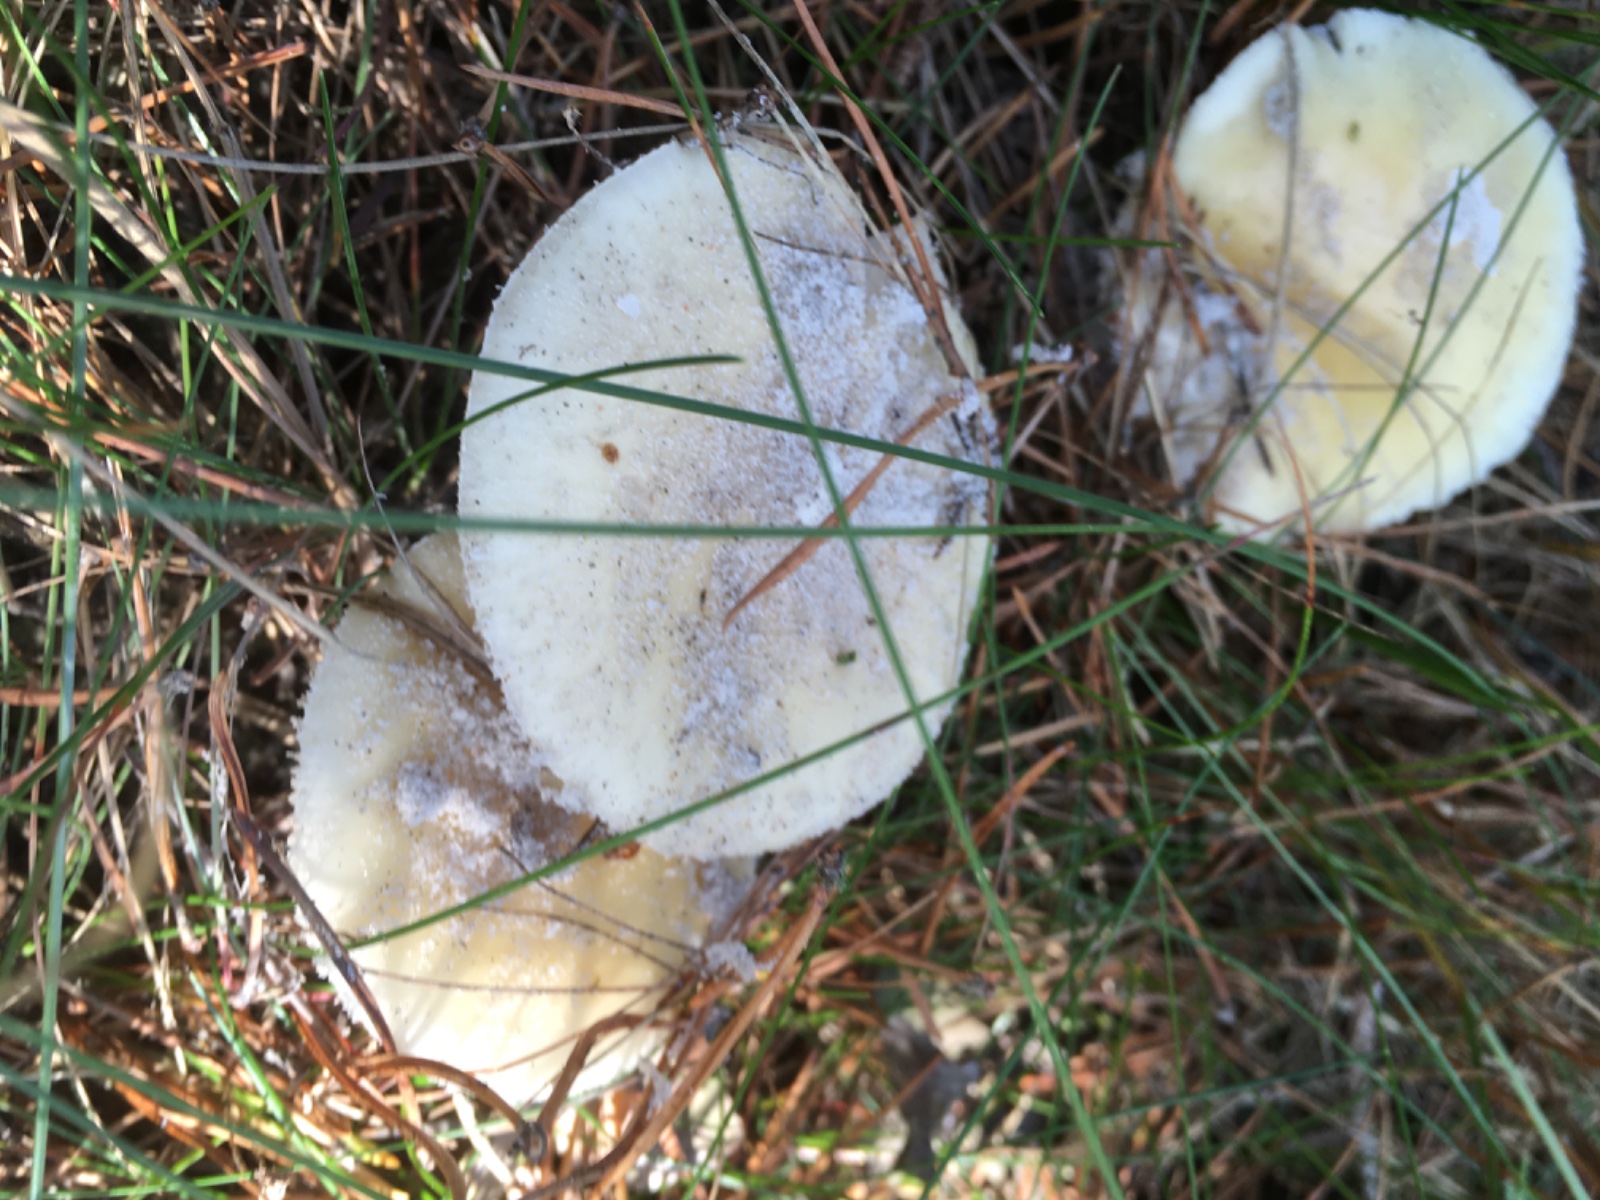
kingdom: Fungi
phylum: Basidiomycota
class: Agaricomycetes
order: Agaricales
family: Amanitaceae
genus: Amanita
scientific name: Amanita gemmata
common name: okkergul fluesvamp
